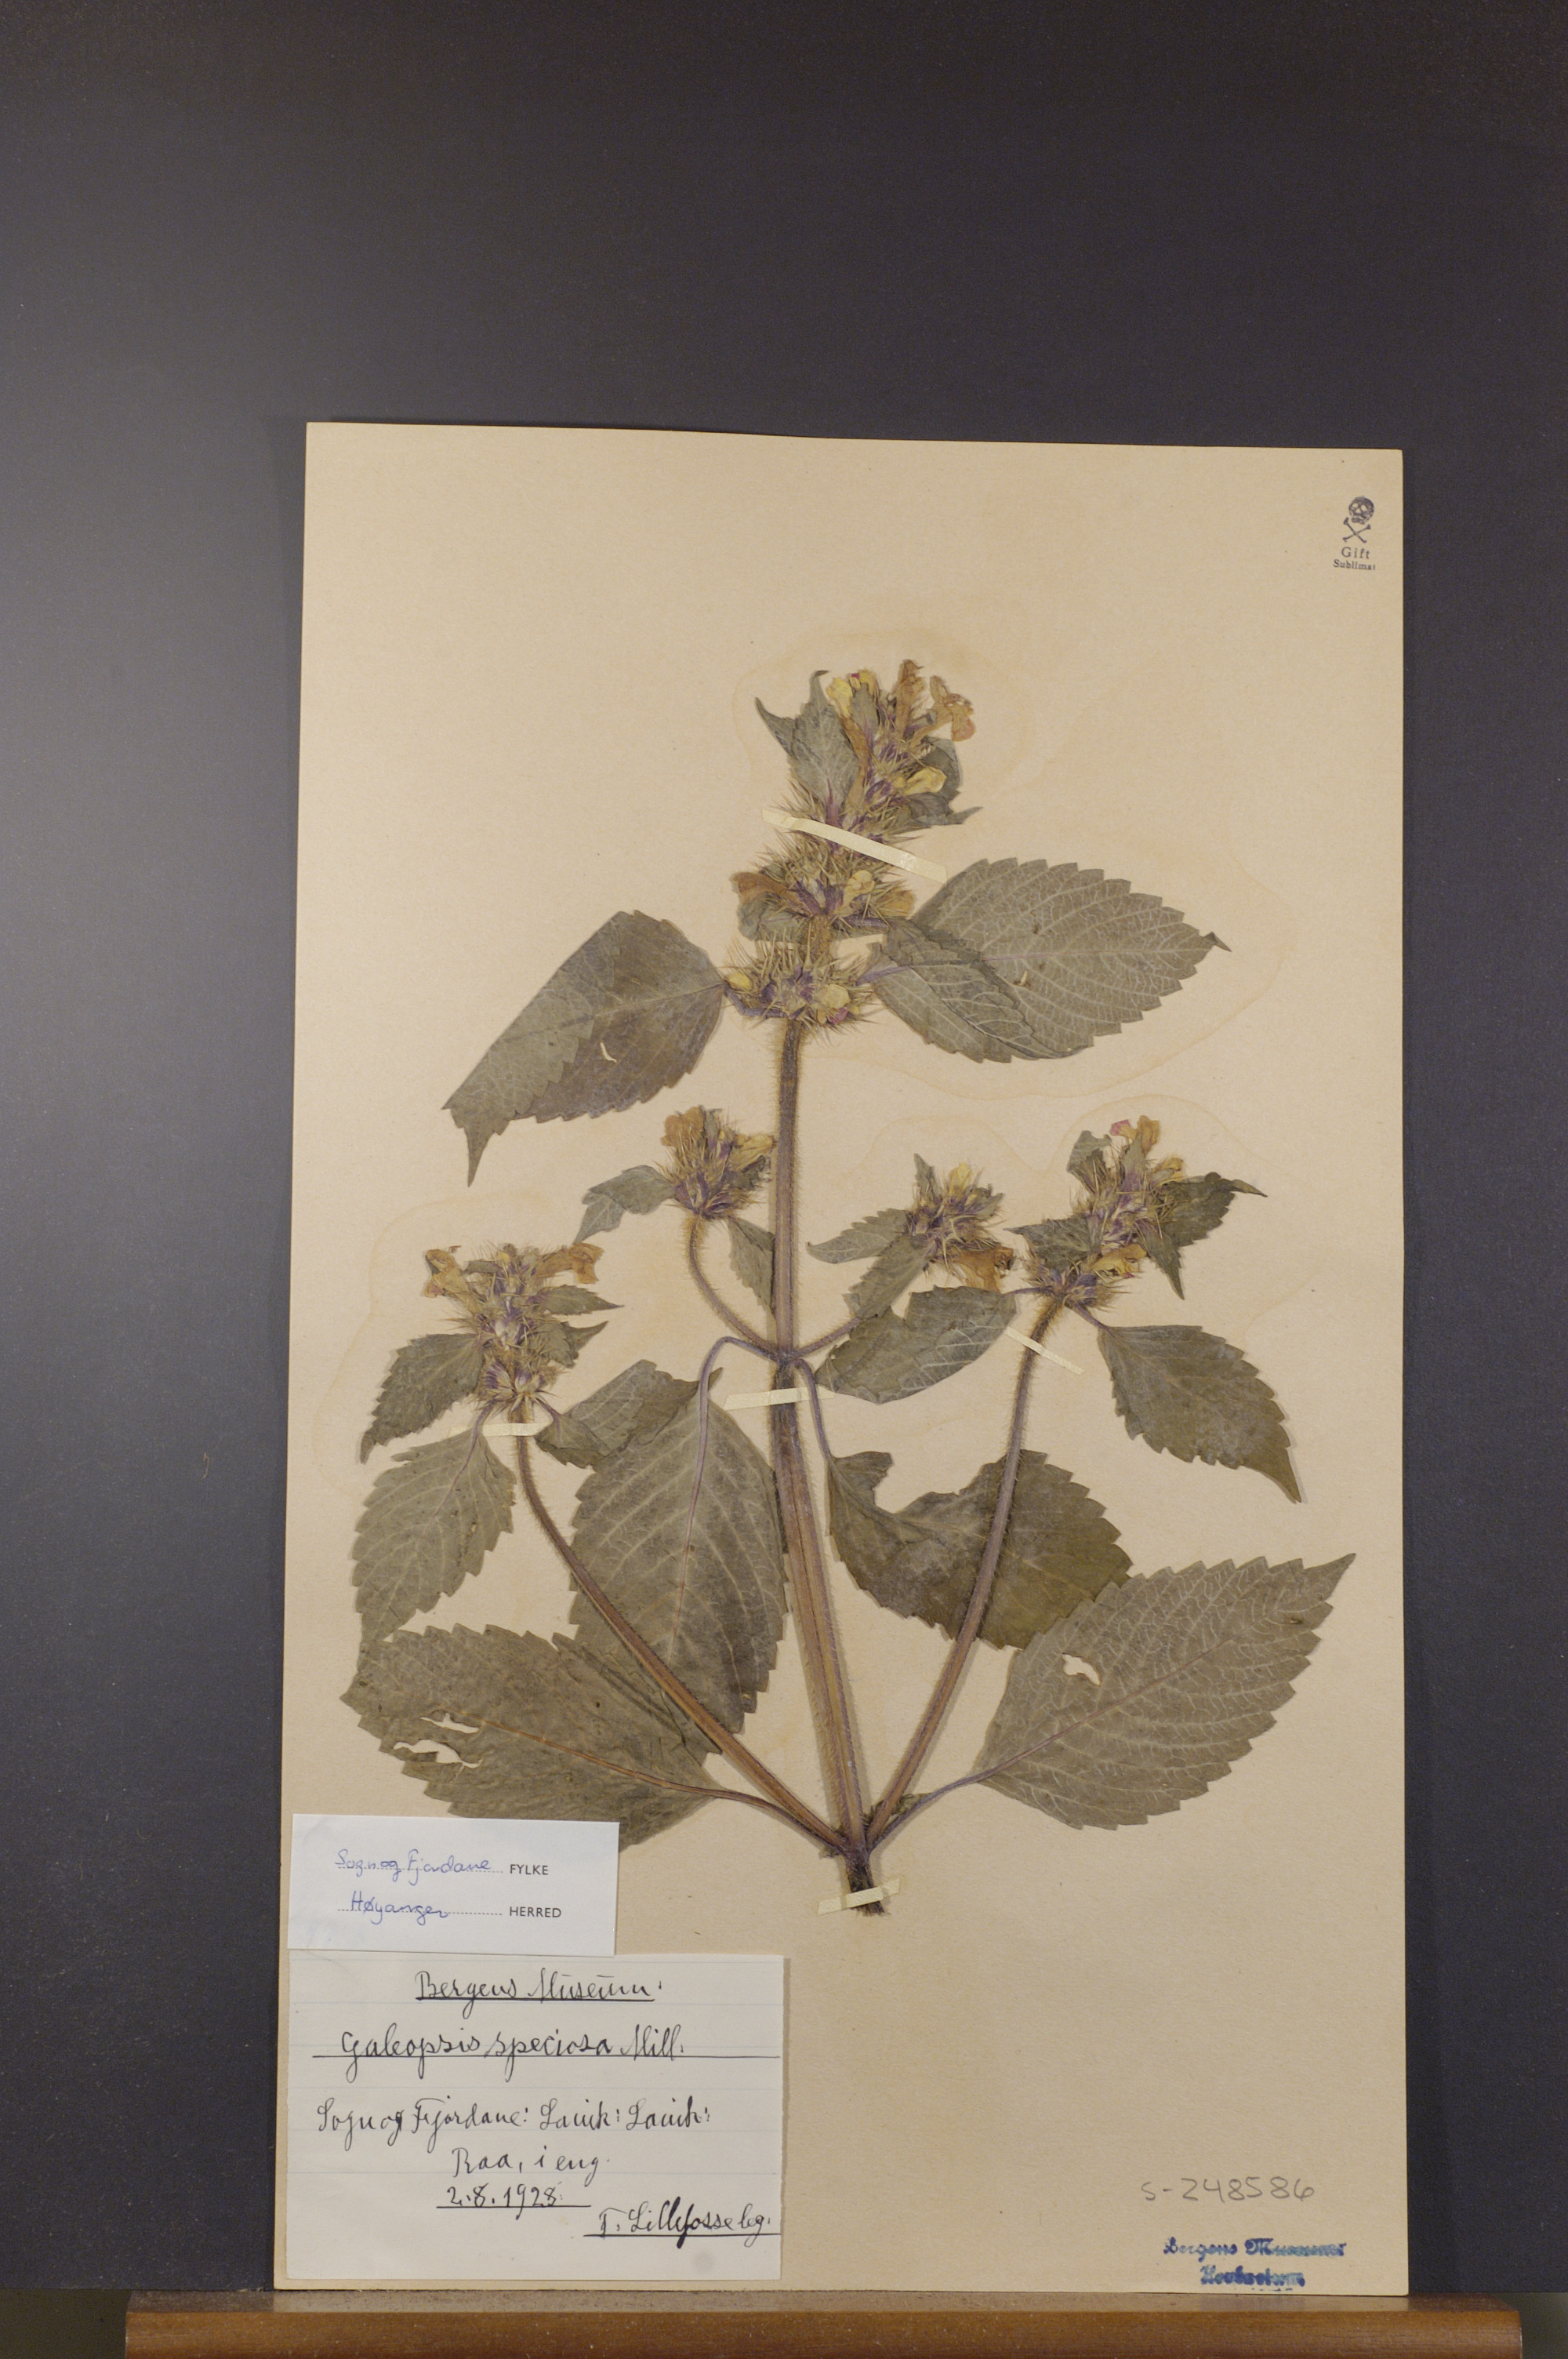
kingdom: Plantae
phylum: Tracheophyta
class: Magnoliopsida
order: Lamiales
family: Lamiaceae
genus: Galeopsis
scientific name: Galeopsis speciosa
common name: Large-flowered hemp-nettle
